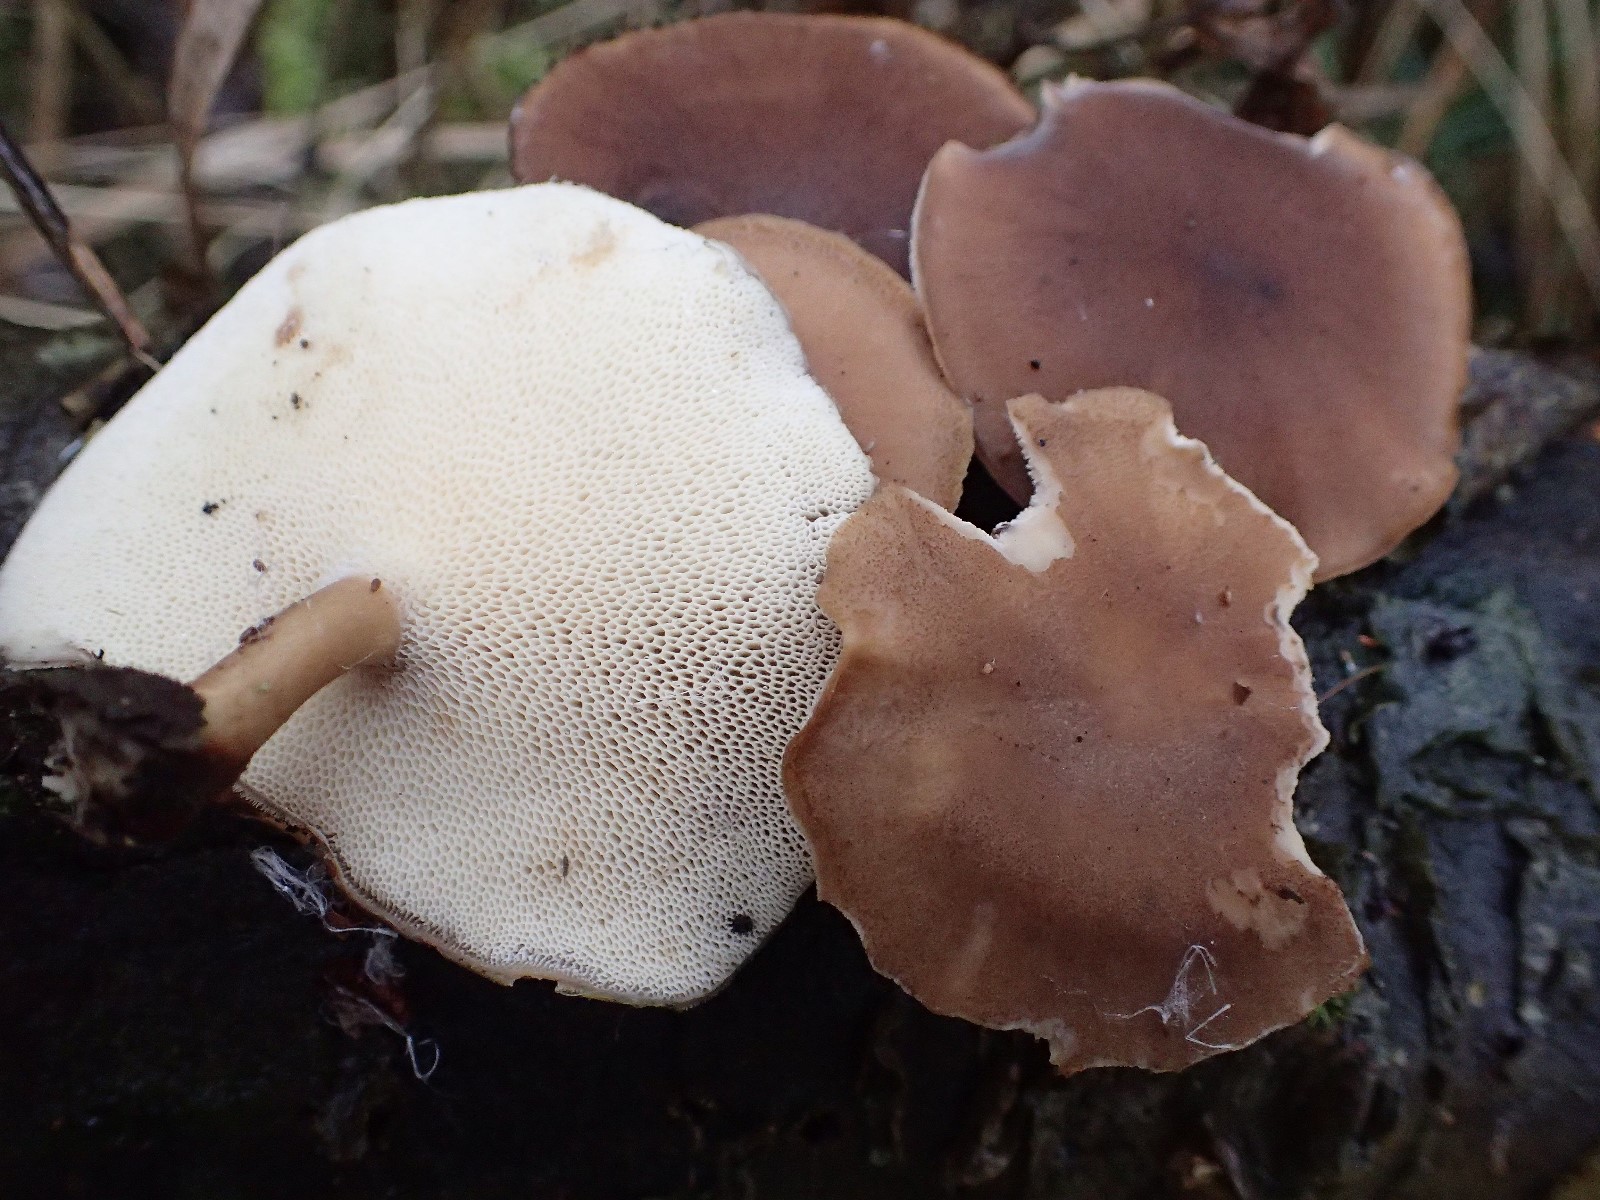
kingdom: Fungi
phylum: Basidiomycota
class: Agaricomycetes
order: Polyporales
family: Polyporaceae
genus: Lentinus
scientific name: Lentinus brumalis
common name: vinter-stilkporesvamp
